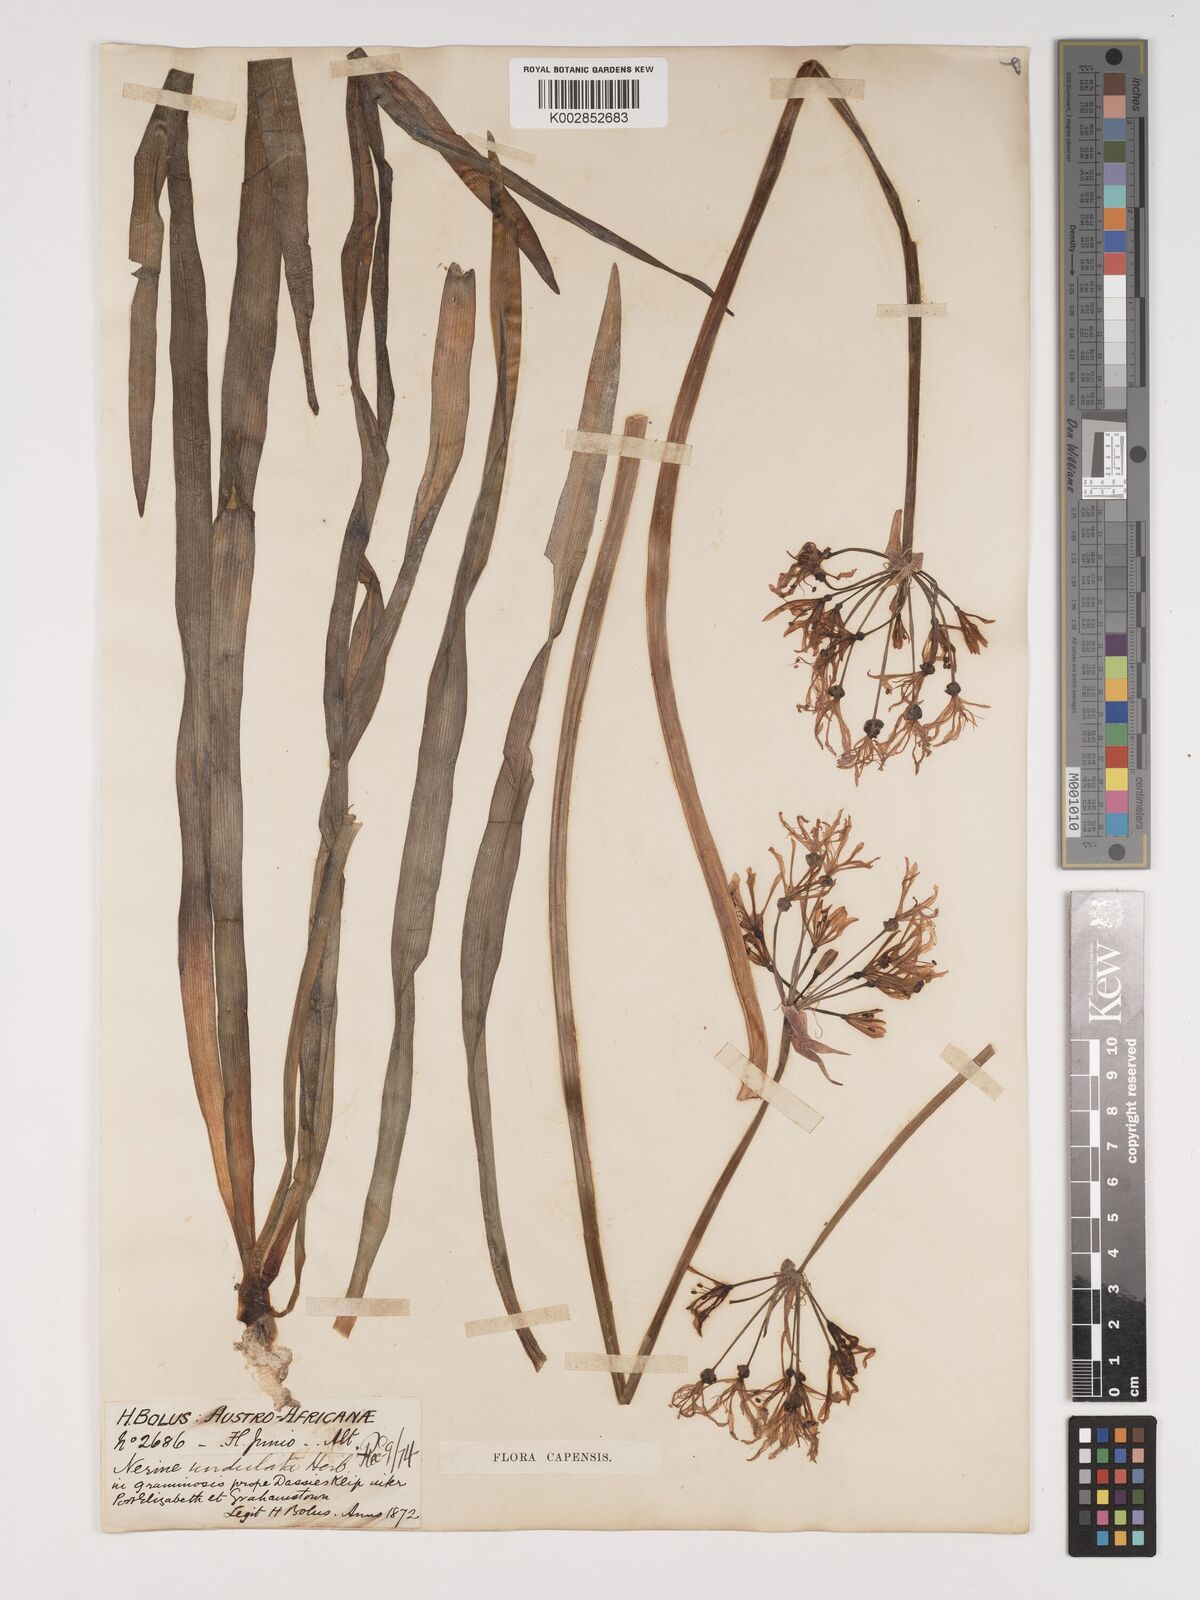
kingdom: Plantae
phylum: Tracheophyta
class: Liliopsida
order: Asparagales
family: Amaryllidaceae
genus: Nerine
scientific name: Nerine undulata
